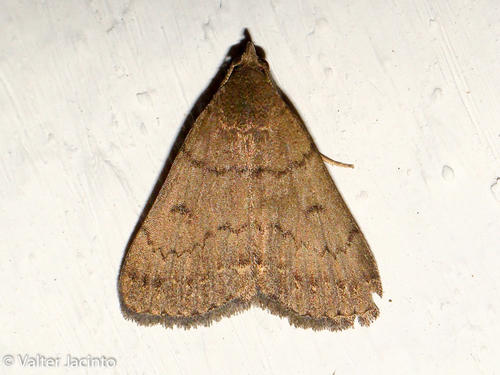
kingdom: Animalia
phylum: Arthropoda
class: Insecta
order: Lepidoptera
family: Erebidae
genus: Nodaria
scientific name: Nodaria nodosalis
